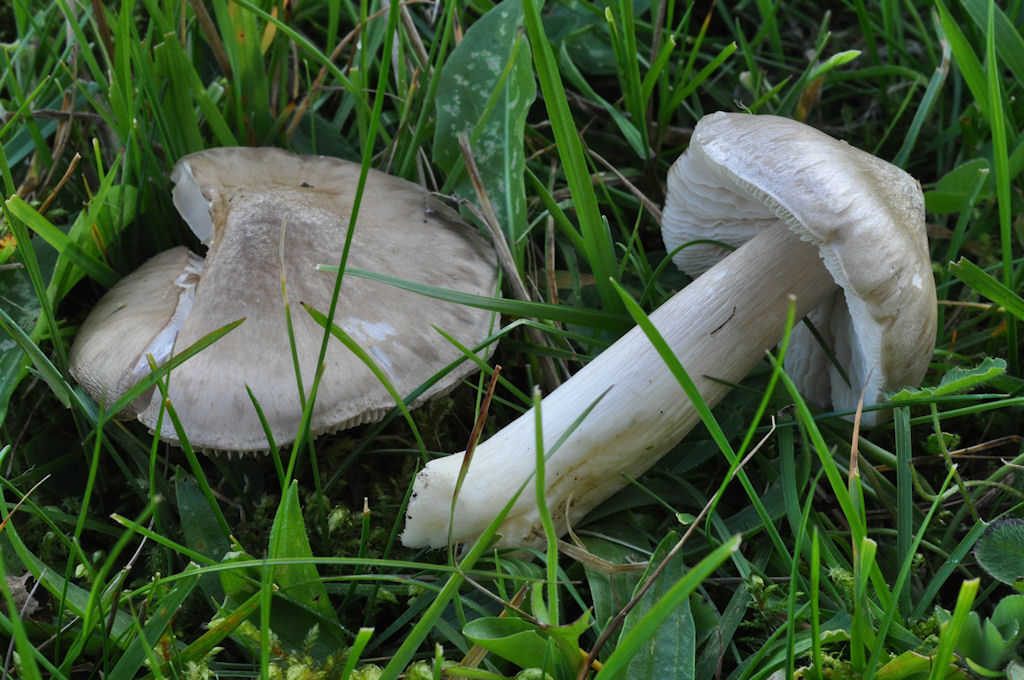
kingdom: Fungi
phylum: Basidiomycota
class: Agaricomycetes
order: Agaricales
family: Entolomataceae
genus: Entoloma
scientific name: Entoloma prunuloides
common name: mel-rødblad
